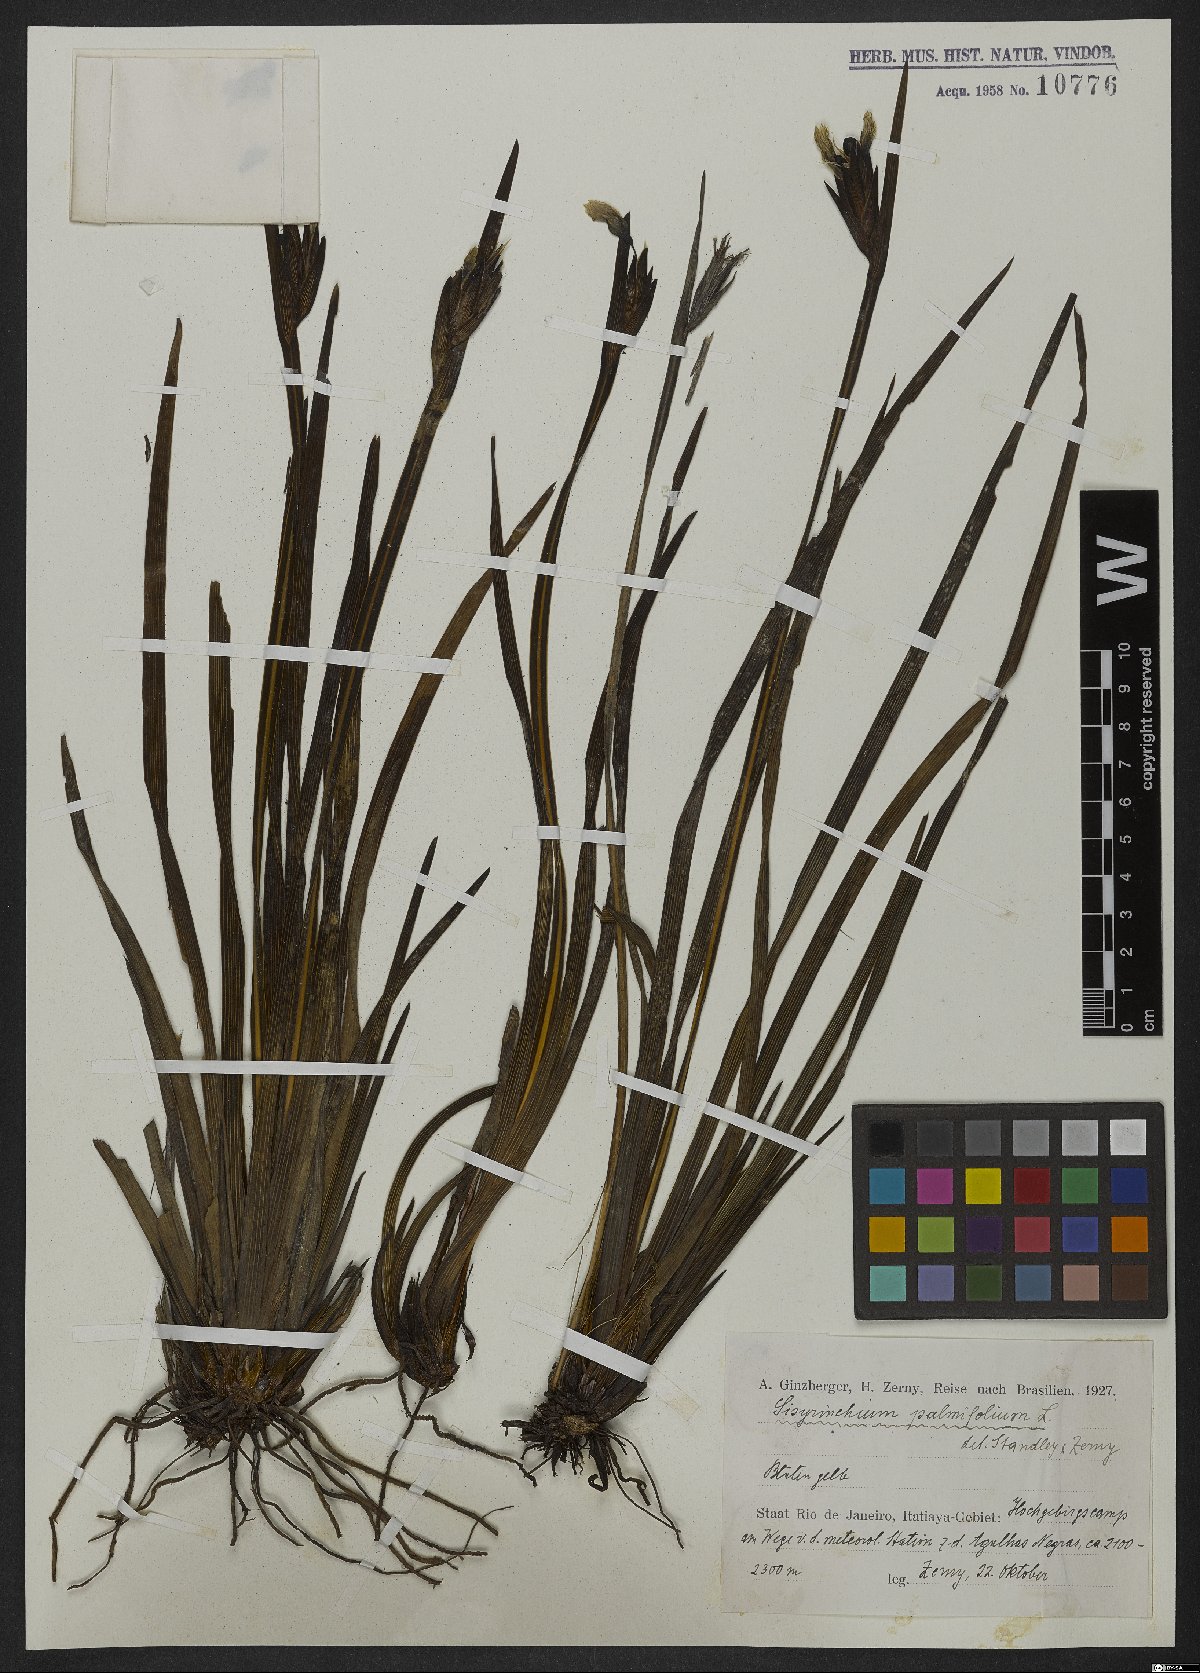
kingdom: Plantae
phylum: Tracheophyta
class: Liliopsida
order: Asparagales
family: Iridaceae
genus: Sisyrinchium
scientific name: Sisyrinchium palmifolium
